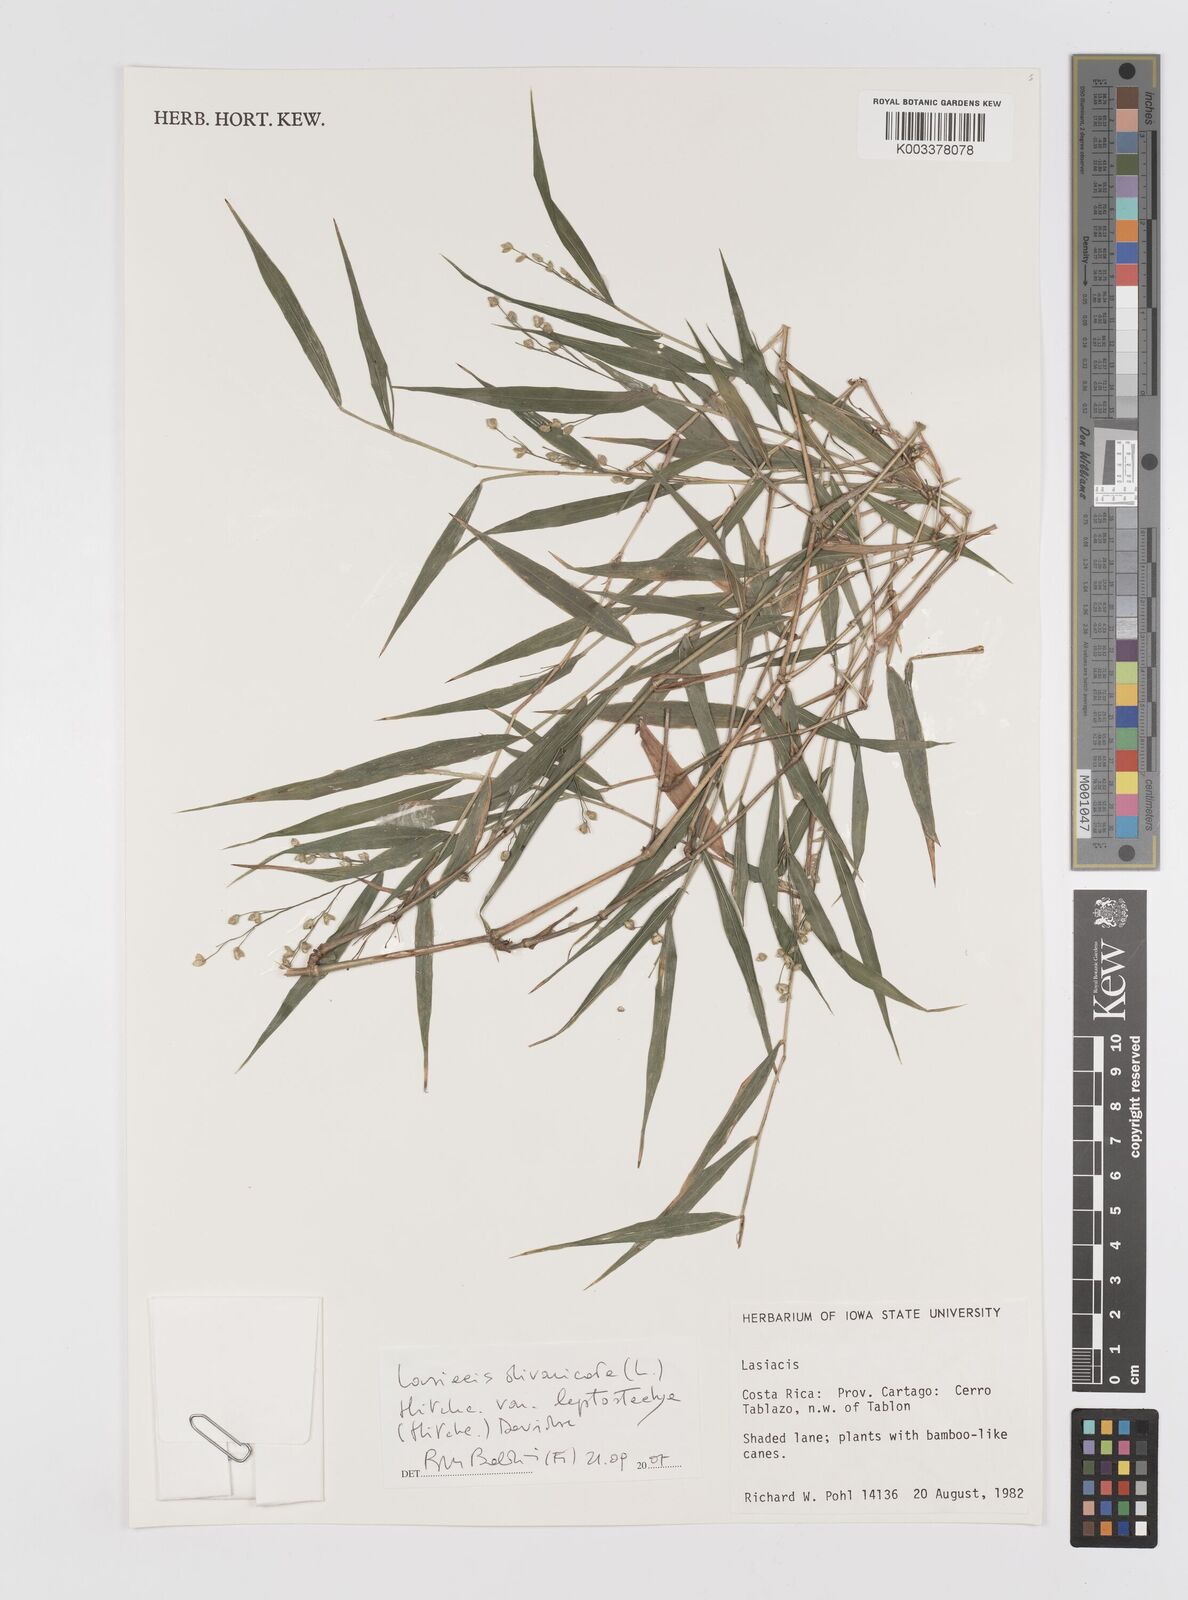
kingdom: Plantae
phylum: Tracheophyta
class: Liliopsida
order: Poales
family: Poaceae
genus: Lasiacis
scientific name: Lasiacis divaricata
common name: Smallcane
